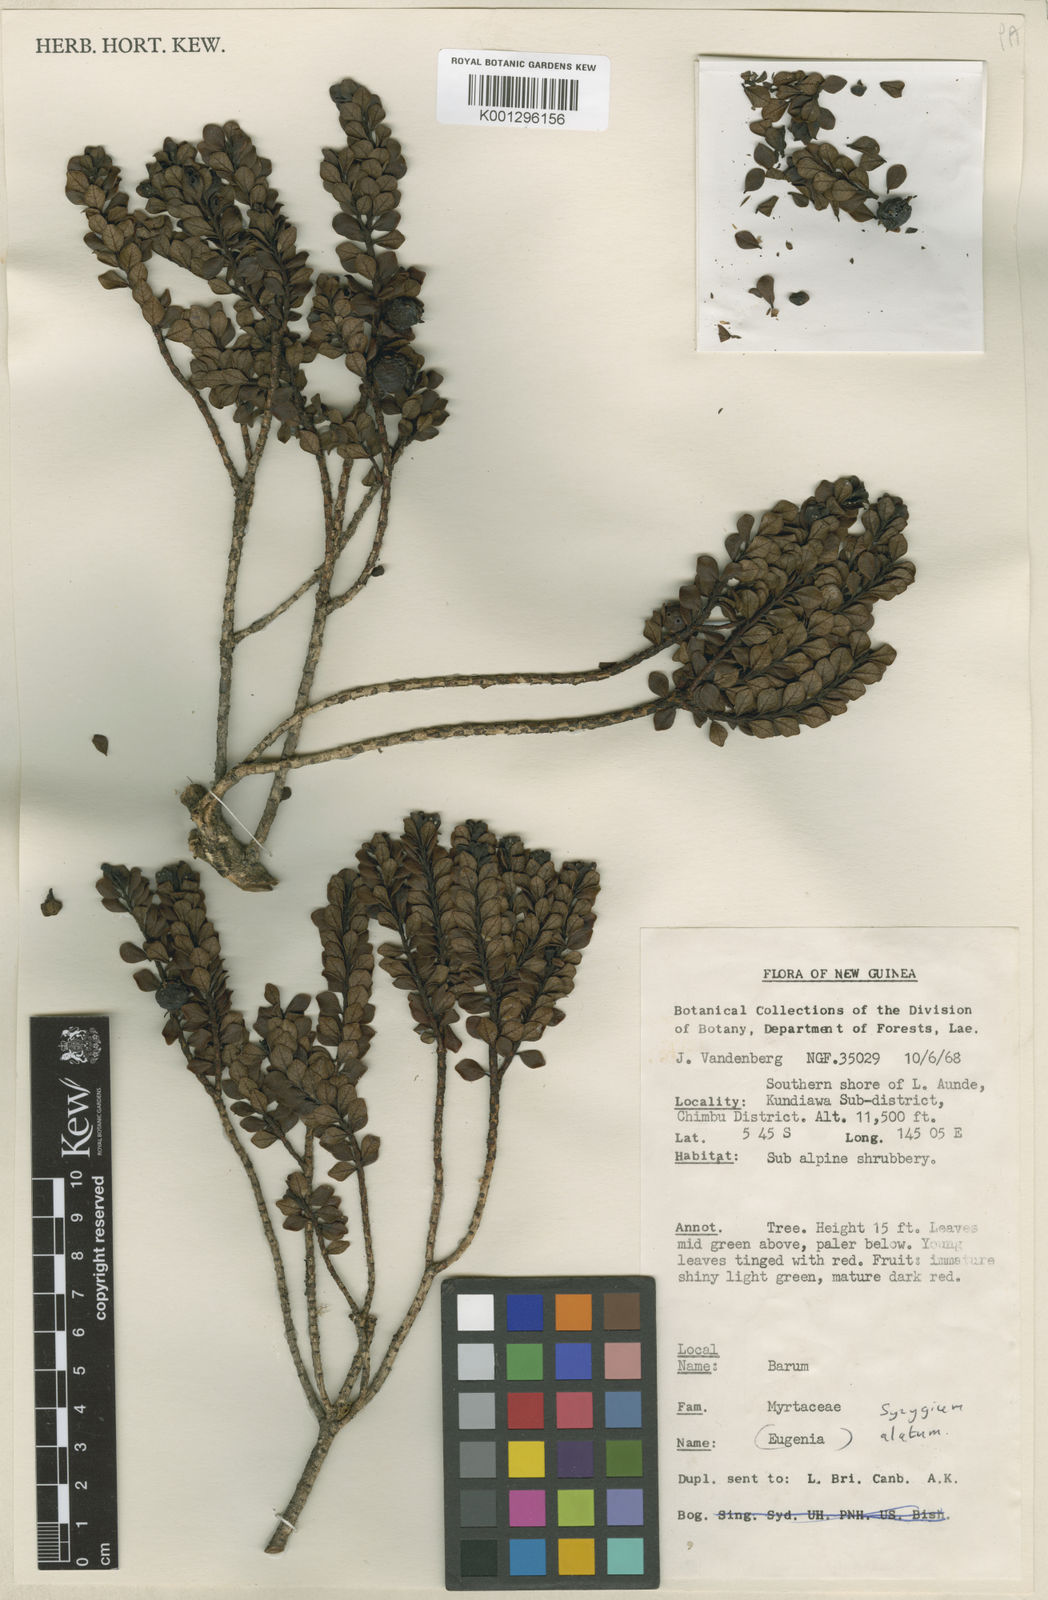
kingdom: Plantae
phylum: Tracheophyta
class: Magnoliopsida
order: Myrtales
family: Myrtaceae
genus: Syzygium
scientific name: Syzygium alatum
